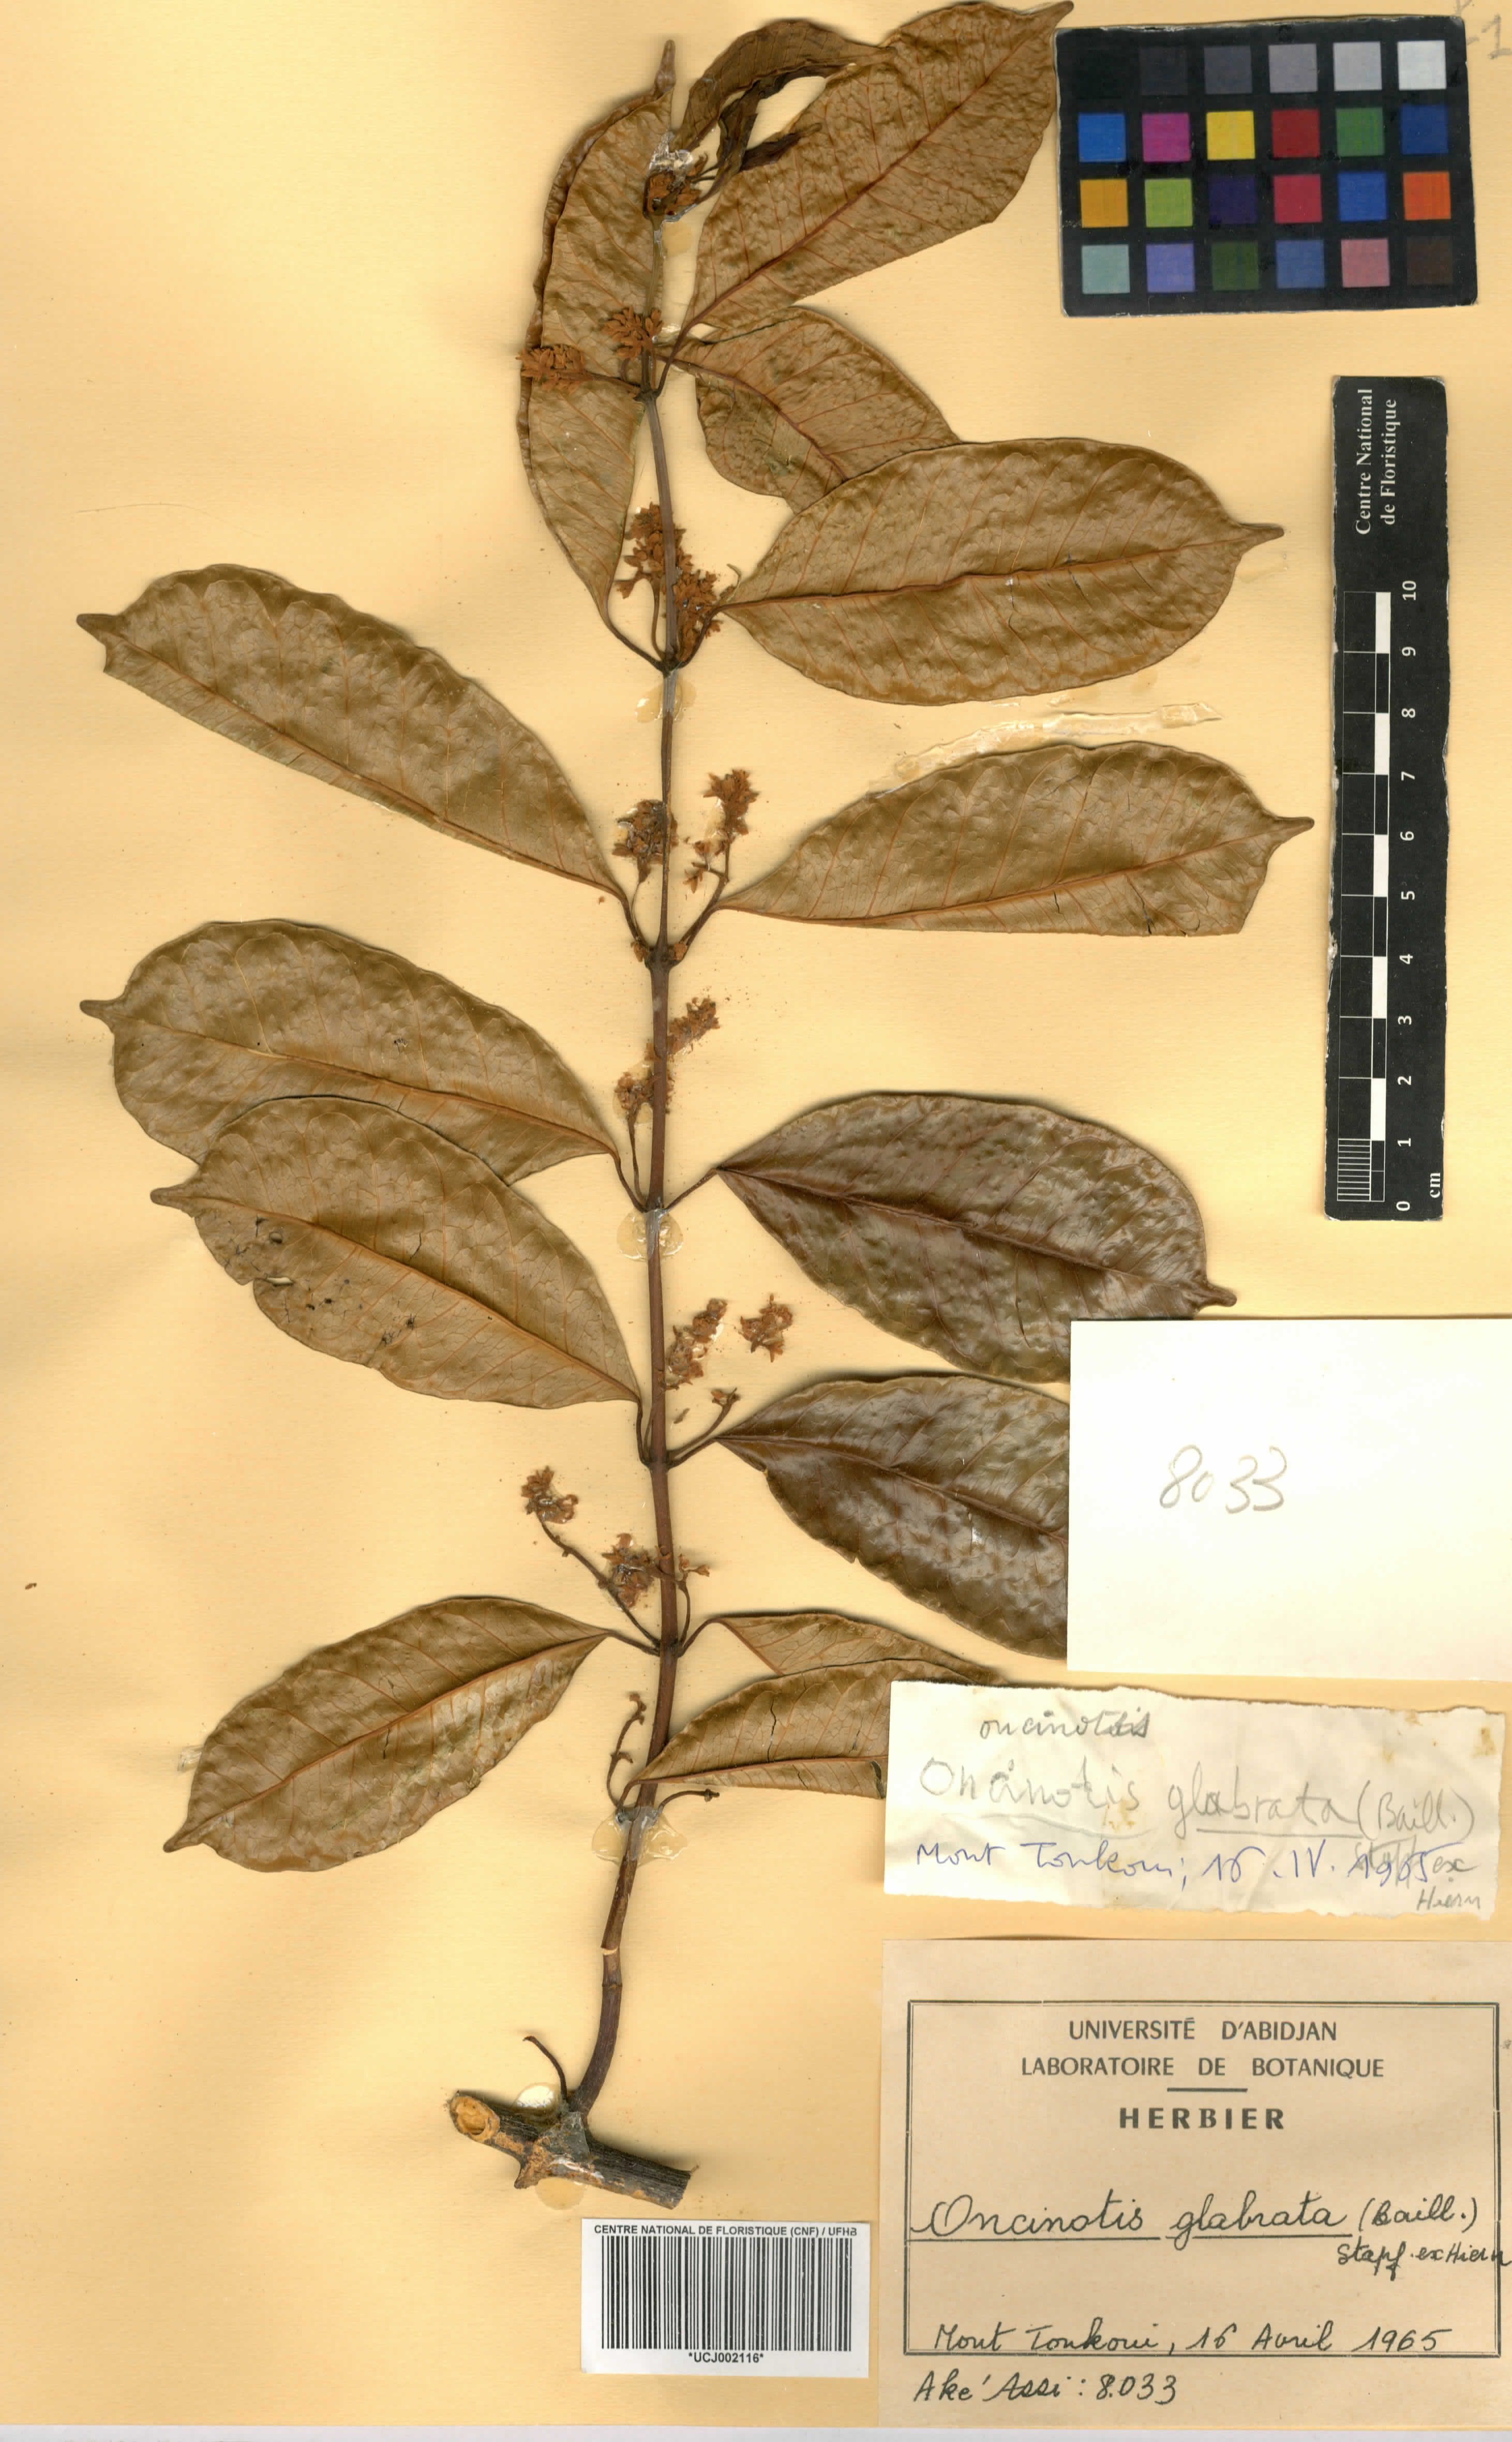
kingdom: Plantae
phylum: Tracheophyta
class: Magnoliopsida
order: Gentianales
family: Apocynaceae
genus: Oncinotis
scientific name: Oncinotis glabrata
